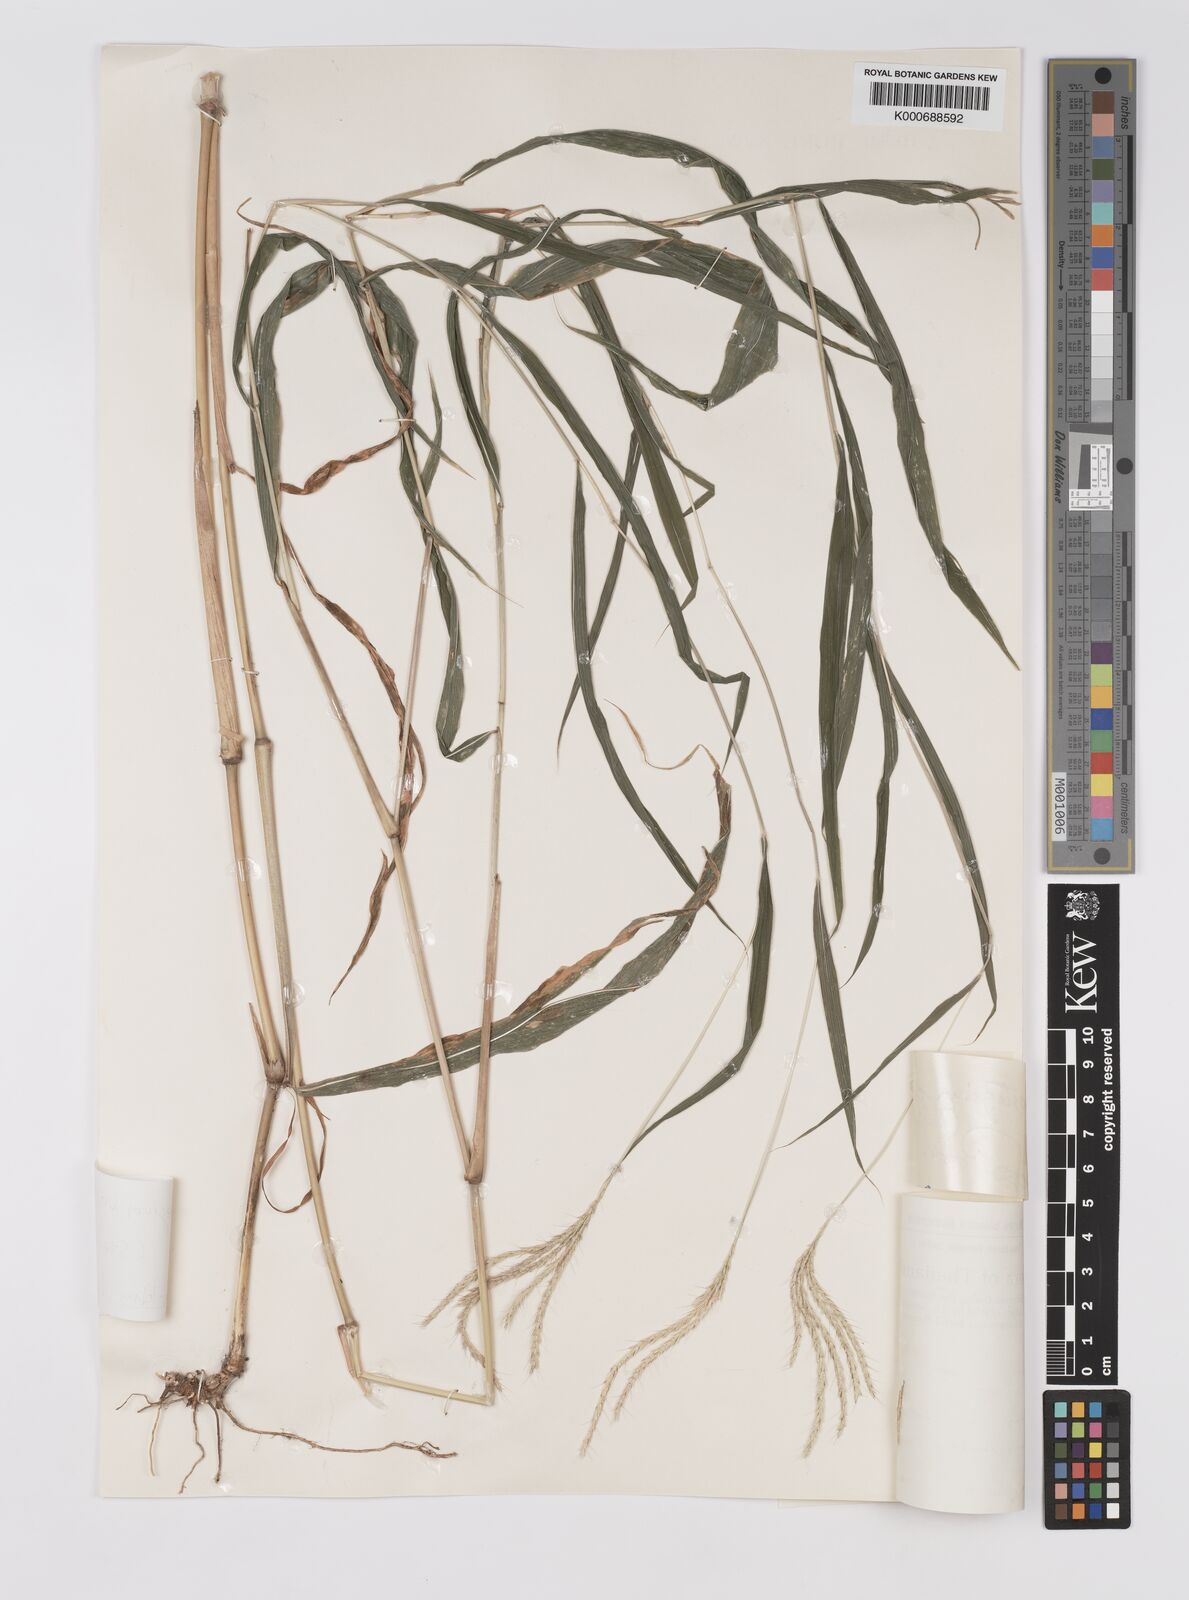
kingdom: Plantae
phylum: Tracheophyta
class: Liliopsida
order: Poales
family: Poaceae
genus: Microstegium
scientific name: Microstegium fasciculatum
